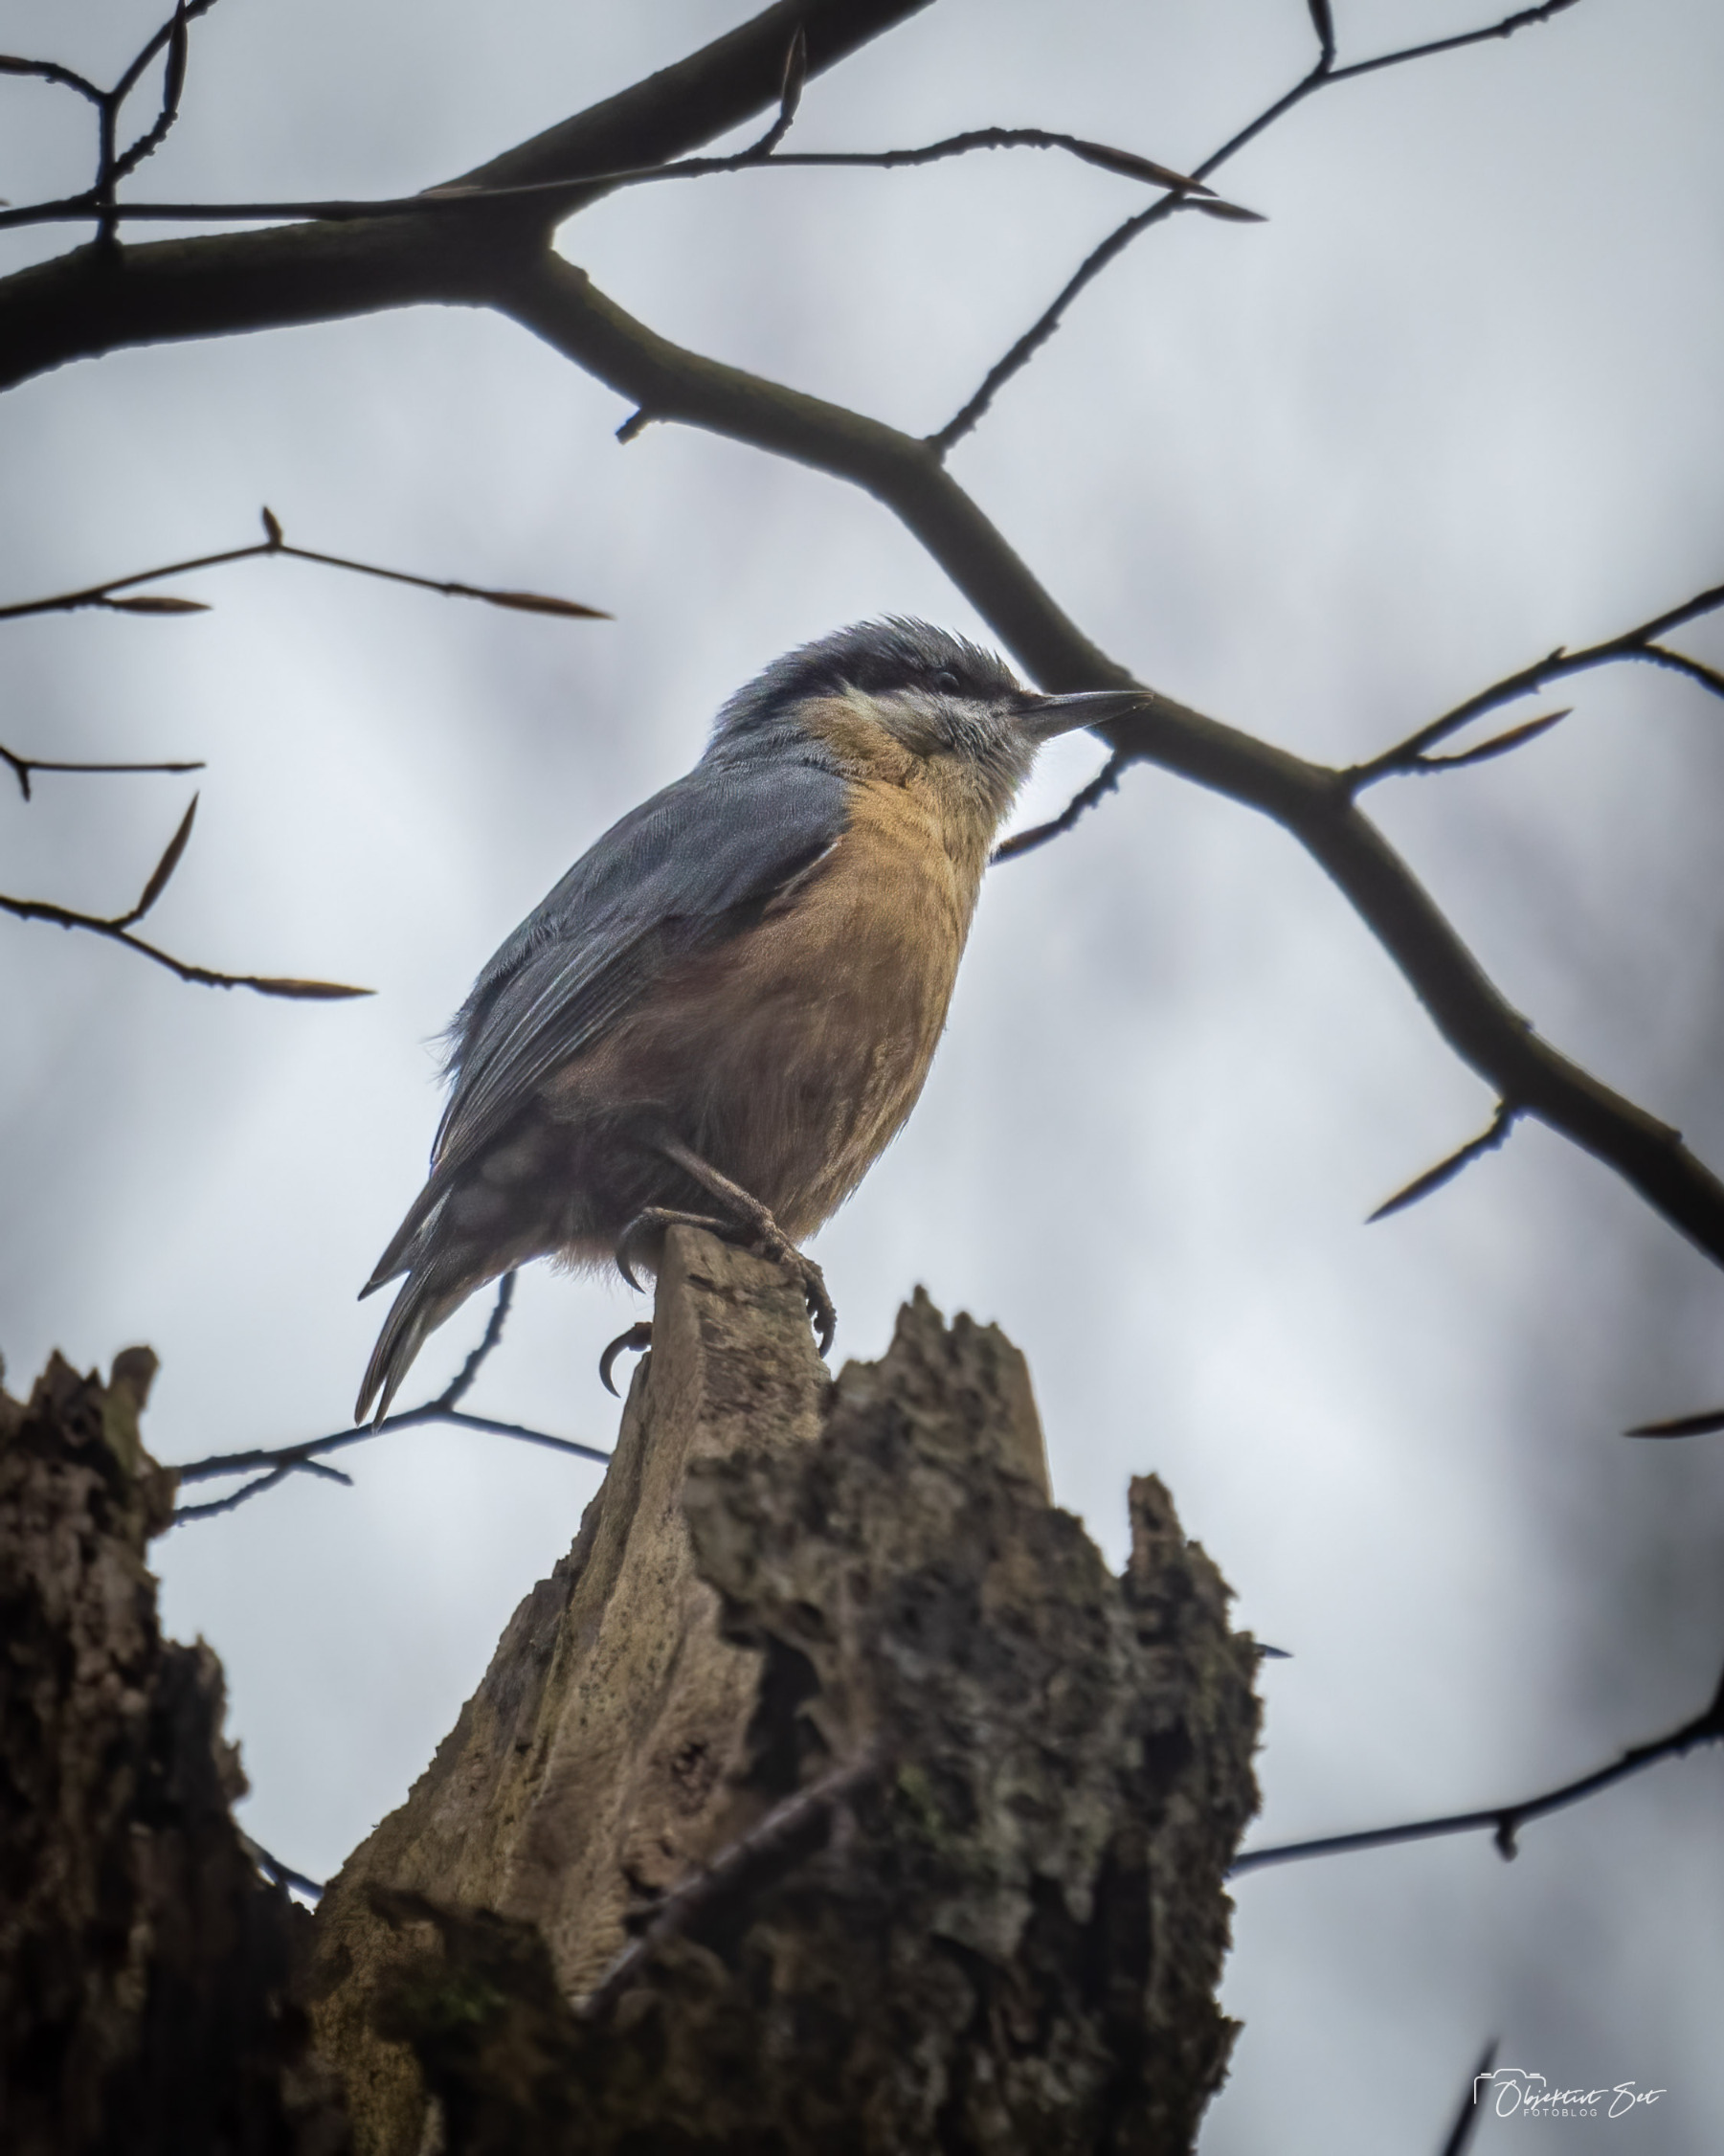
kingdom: Animalia
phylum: Chordata
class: Aves
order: Passeriformes
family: Sittidae
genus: Sitta
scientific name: Sitta europaea
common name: Spætmejse
